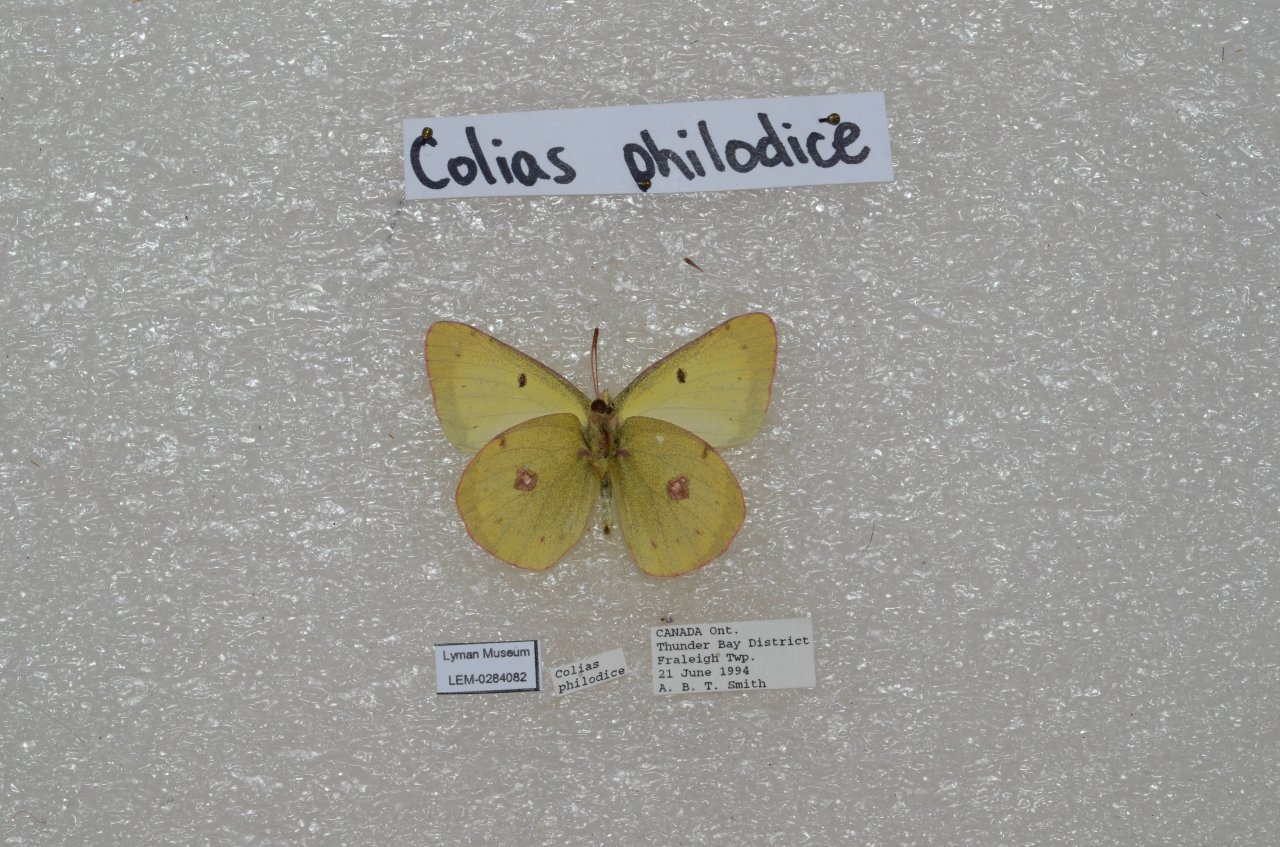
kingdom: Animalia
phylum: Arthropoda
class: Insecta
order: Lepidoptera
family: Pieridae
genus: Colias
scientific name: Colias philodice
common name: Clouded Sulphur
